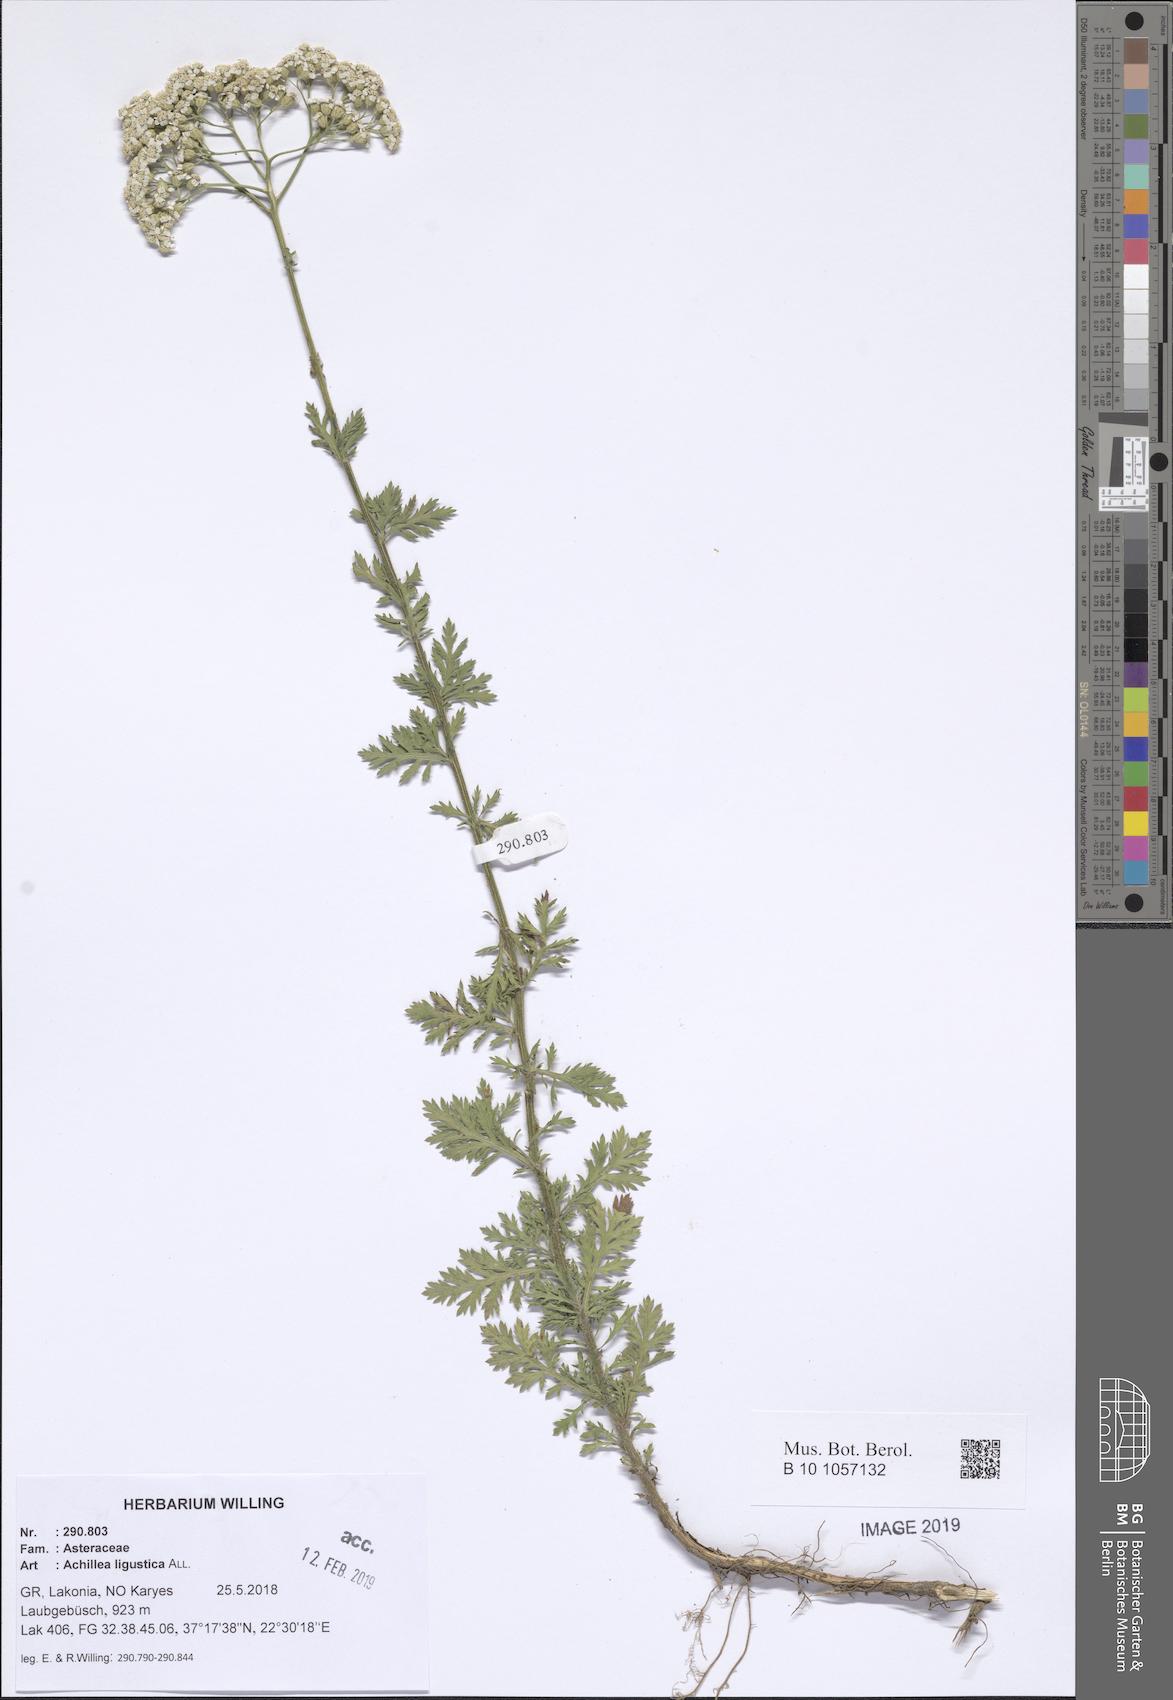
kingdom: Plantae
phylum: Tracheophyta
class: Magnoliopsida
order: Asterales
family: Asteraceae
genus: Achillea
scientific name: Achillea ligustica
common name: Southern yarrow
